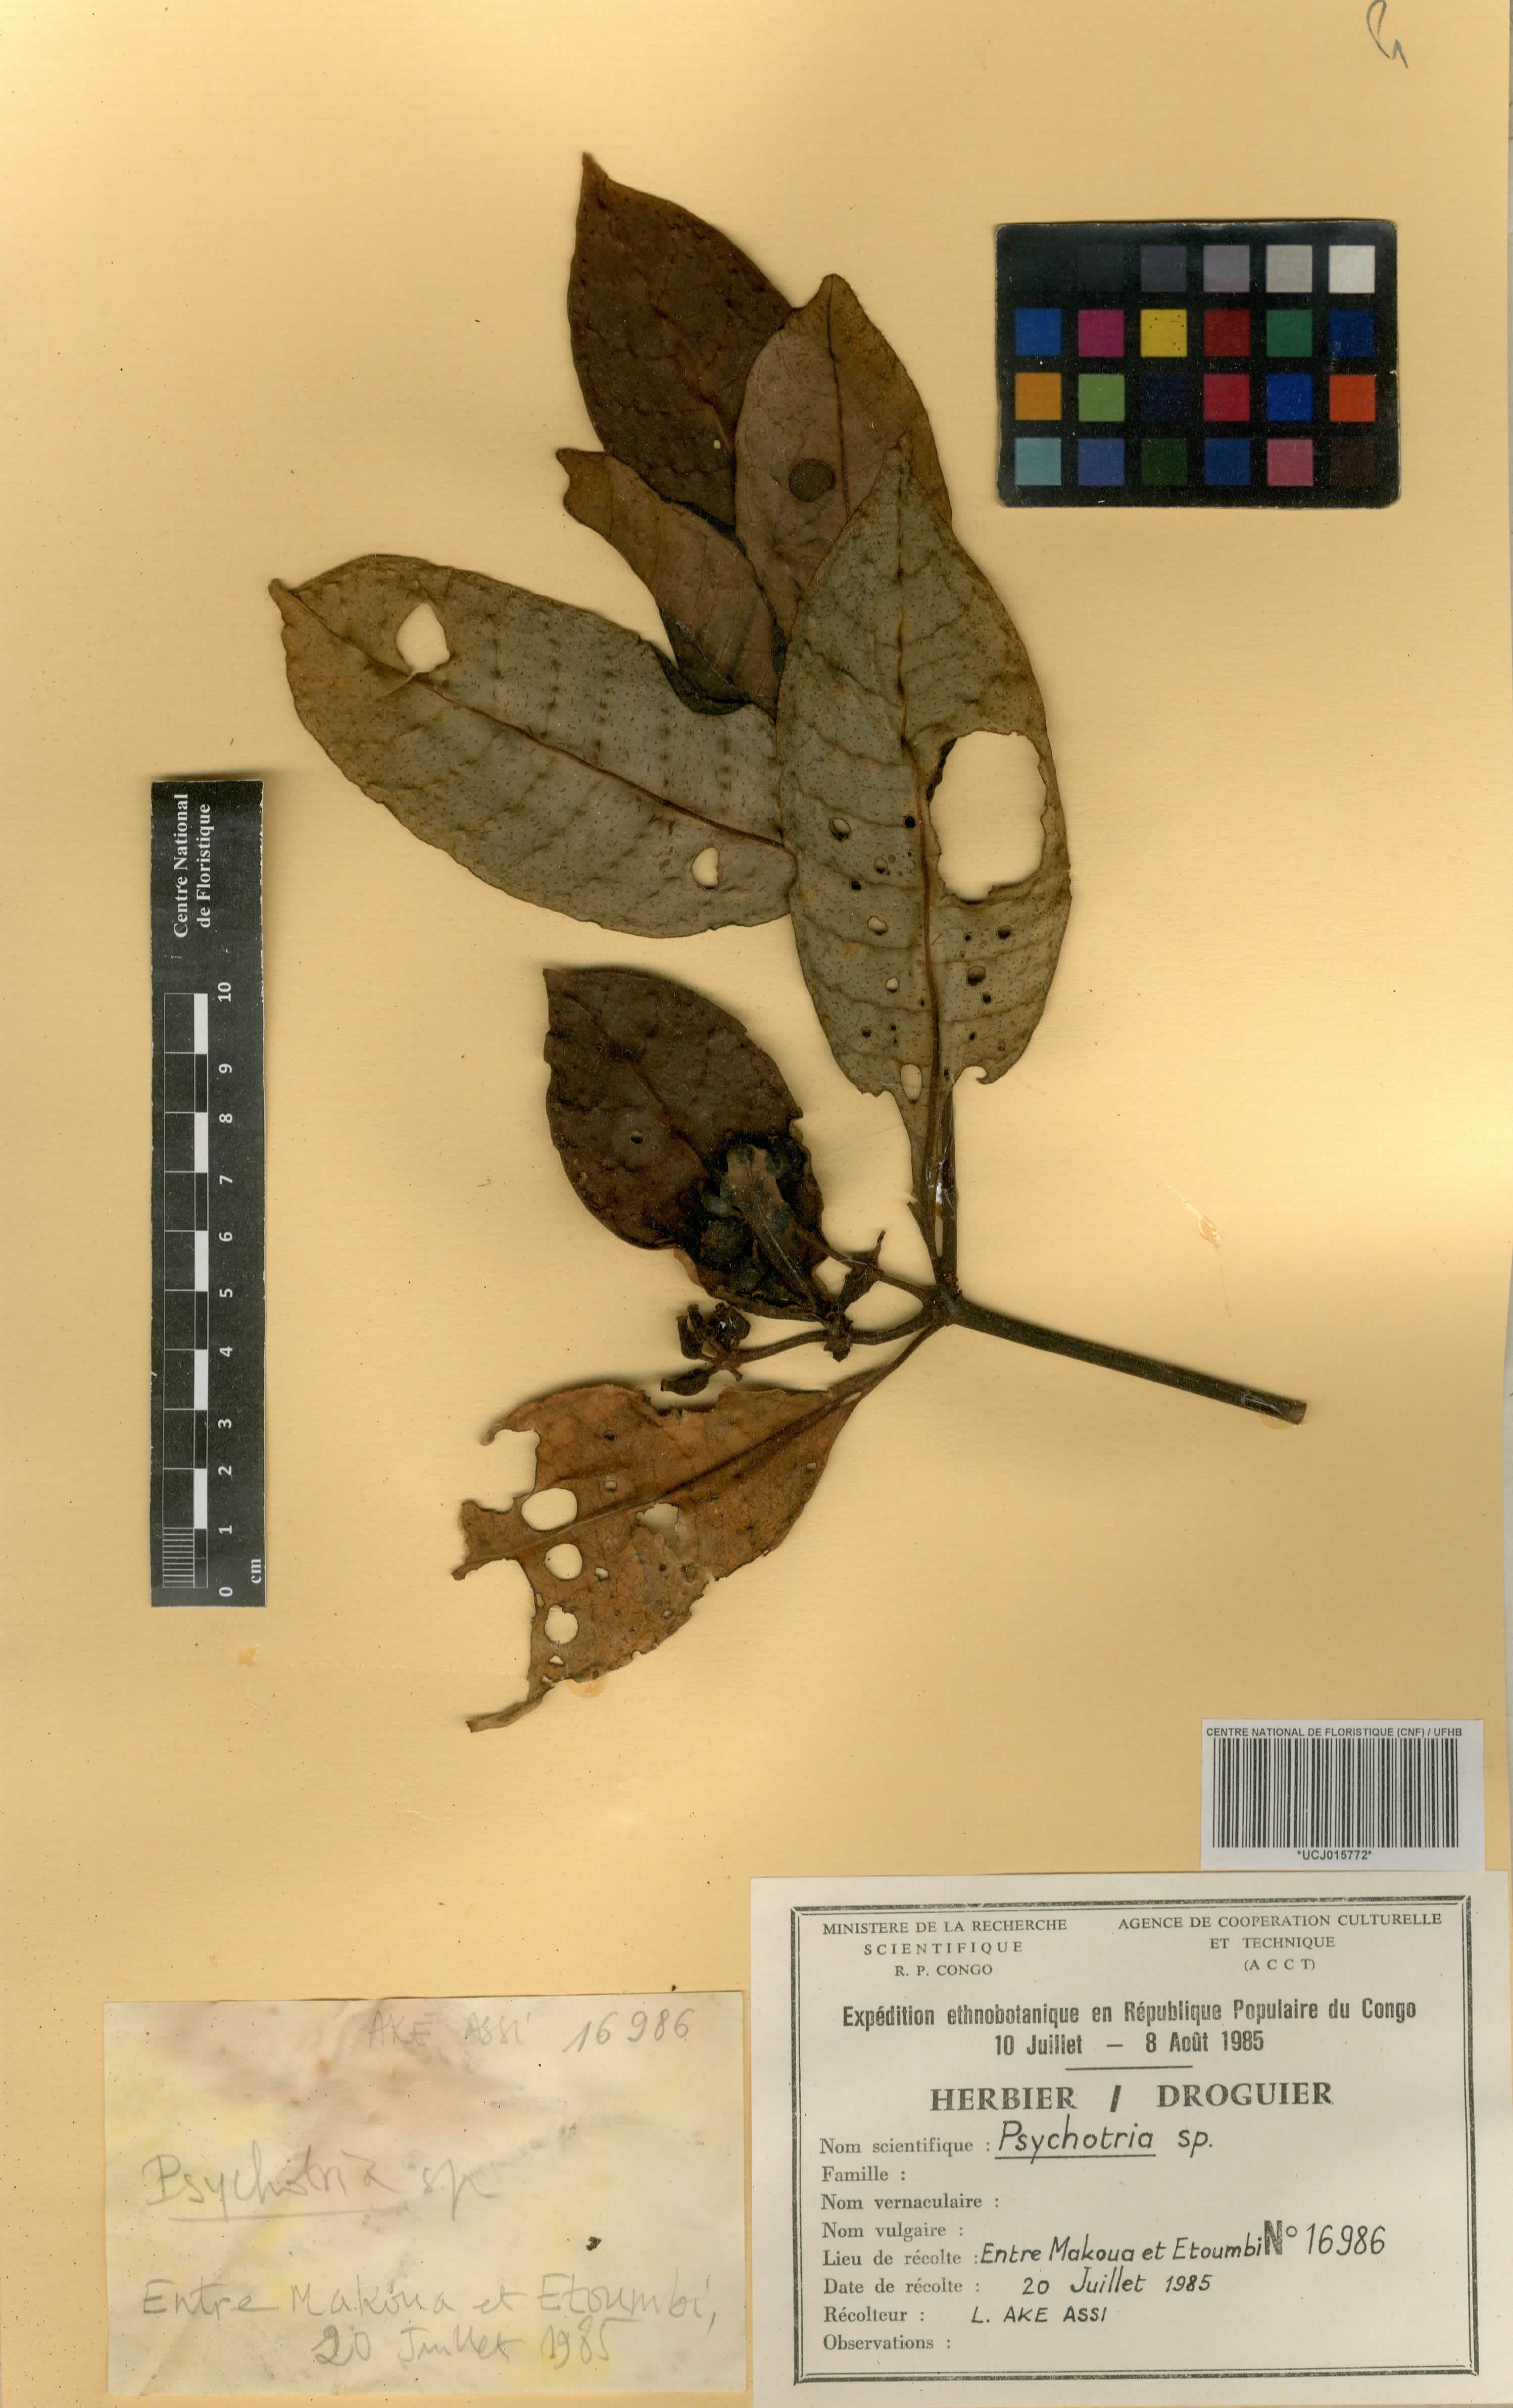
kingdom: Plantae
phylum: Tracheophyta
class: Magnoliopsida
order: Gentianales
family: Rubiaceae
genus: Psychotria
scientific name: Psychotria
